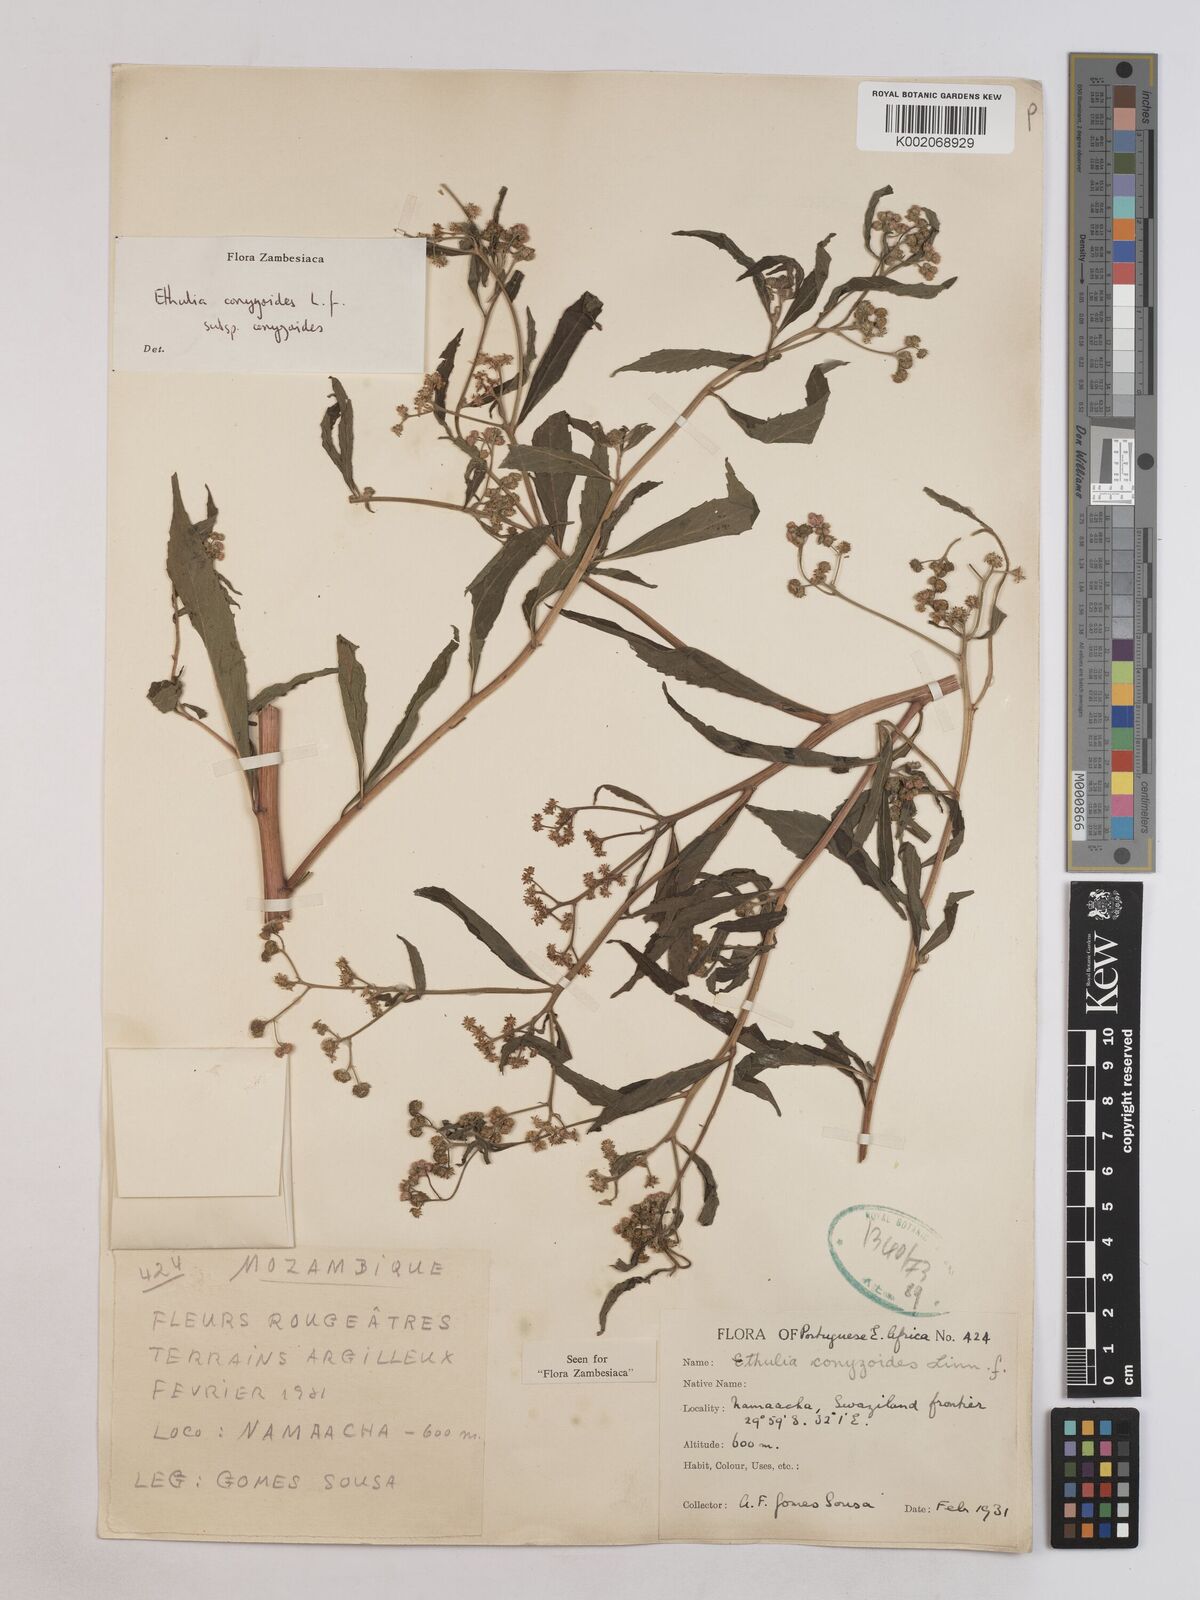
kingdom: Plantae
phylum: Tracheophyta
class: Magnoliopsida
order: Asterales
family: Asteraceae
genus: Ethulia
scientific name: Ethulia conyzoides
